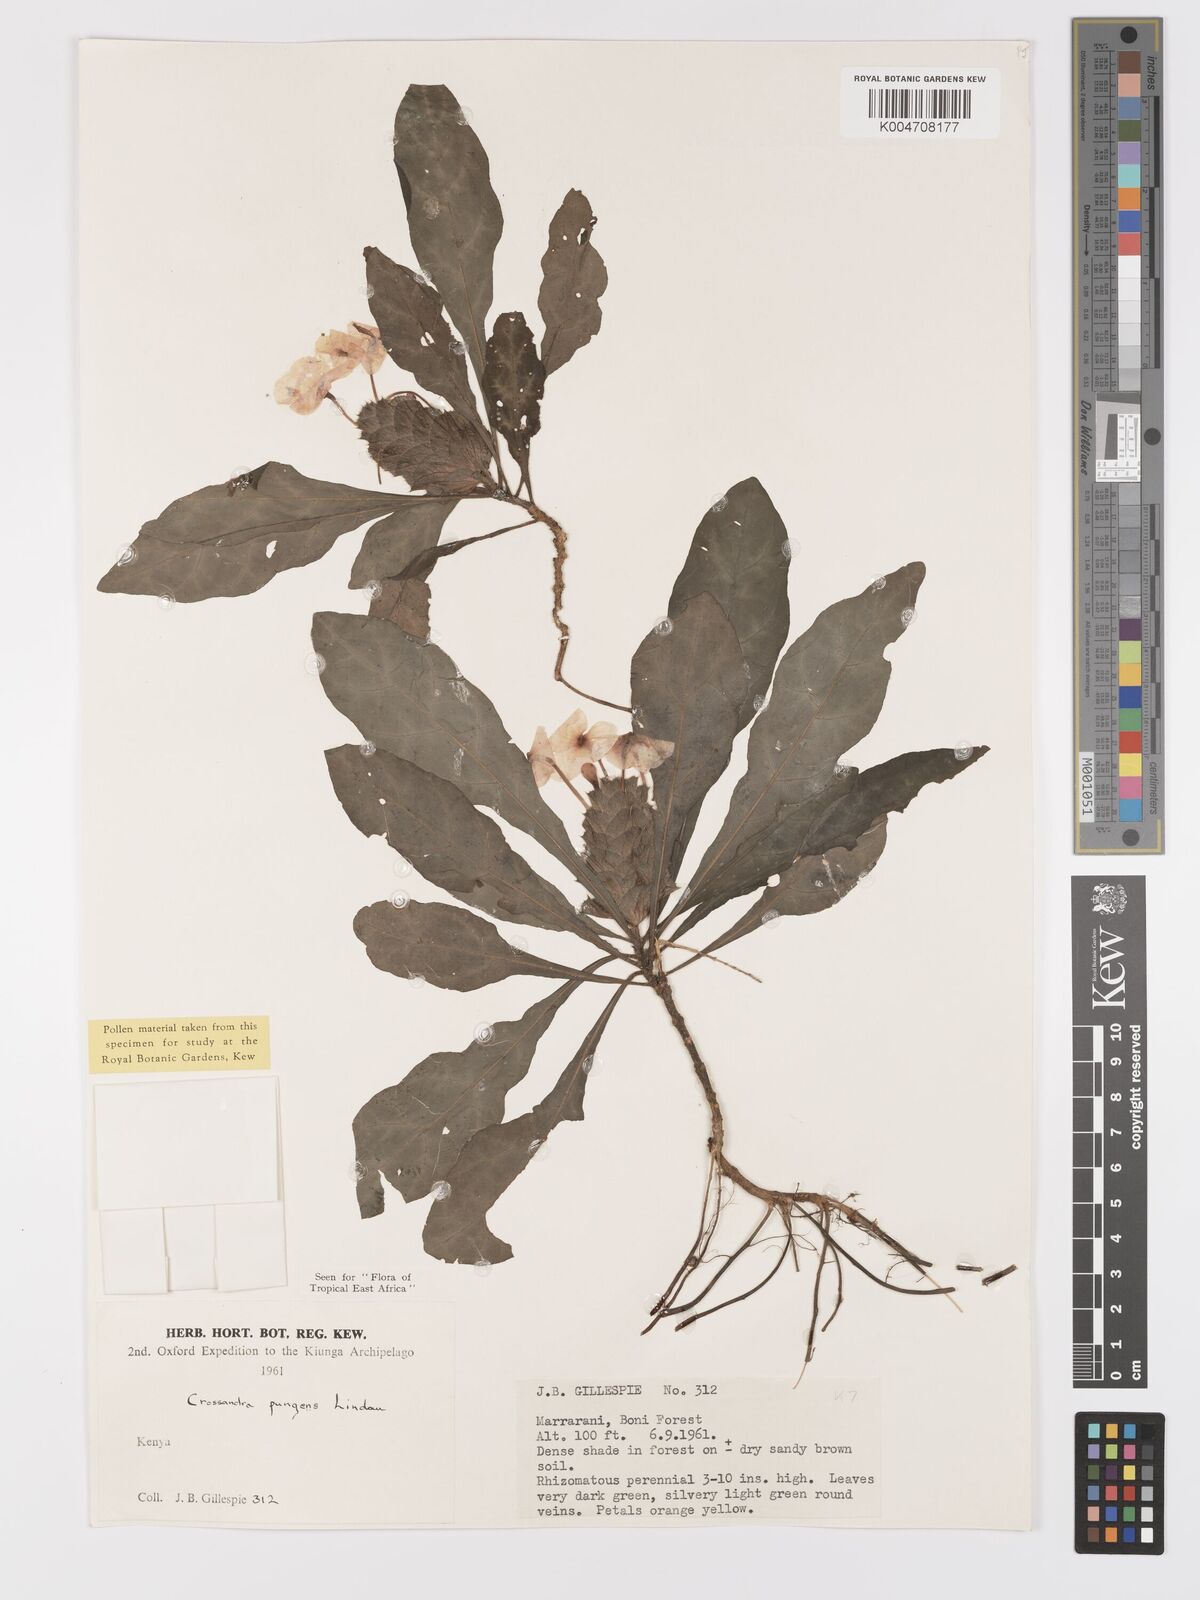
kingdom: Plantae
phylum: Tracheophyta
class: Magnoliopsida
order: Lamiales
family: Acanthaceae
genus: Crossandra
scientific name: Crossandra pungens
